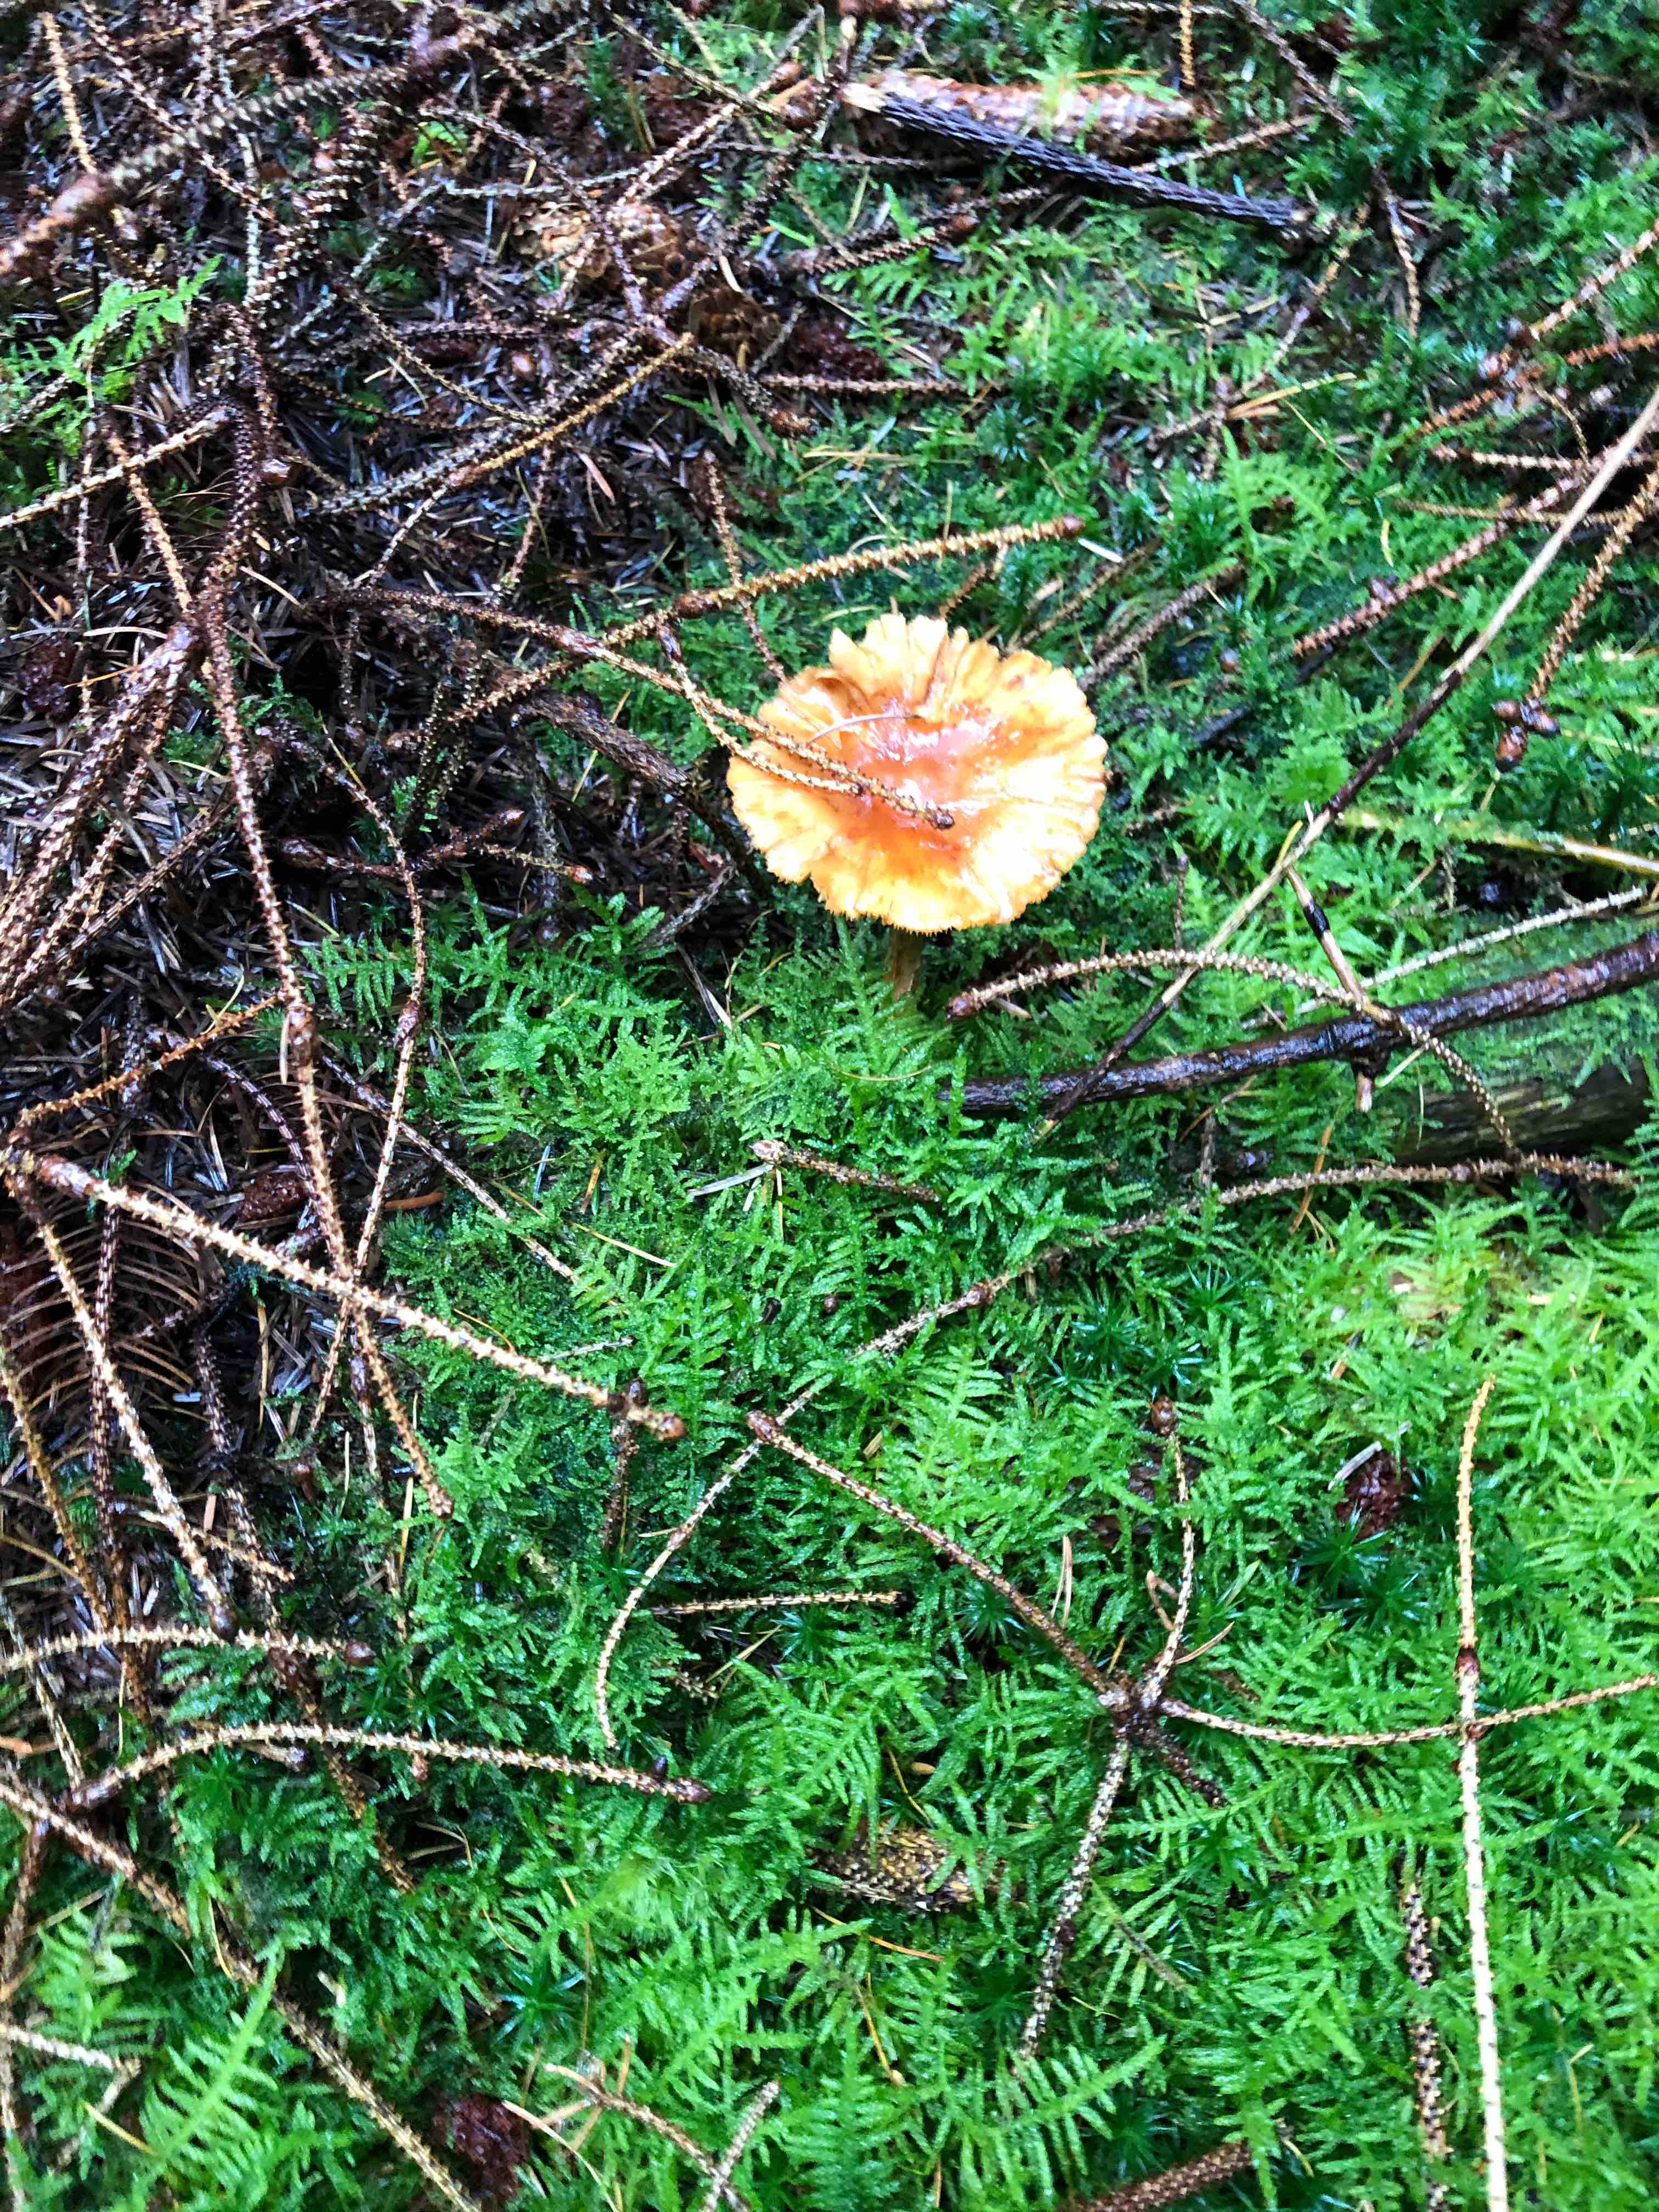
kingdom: Fungi
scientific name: Fungi
